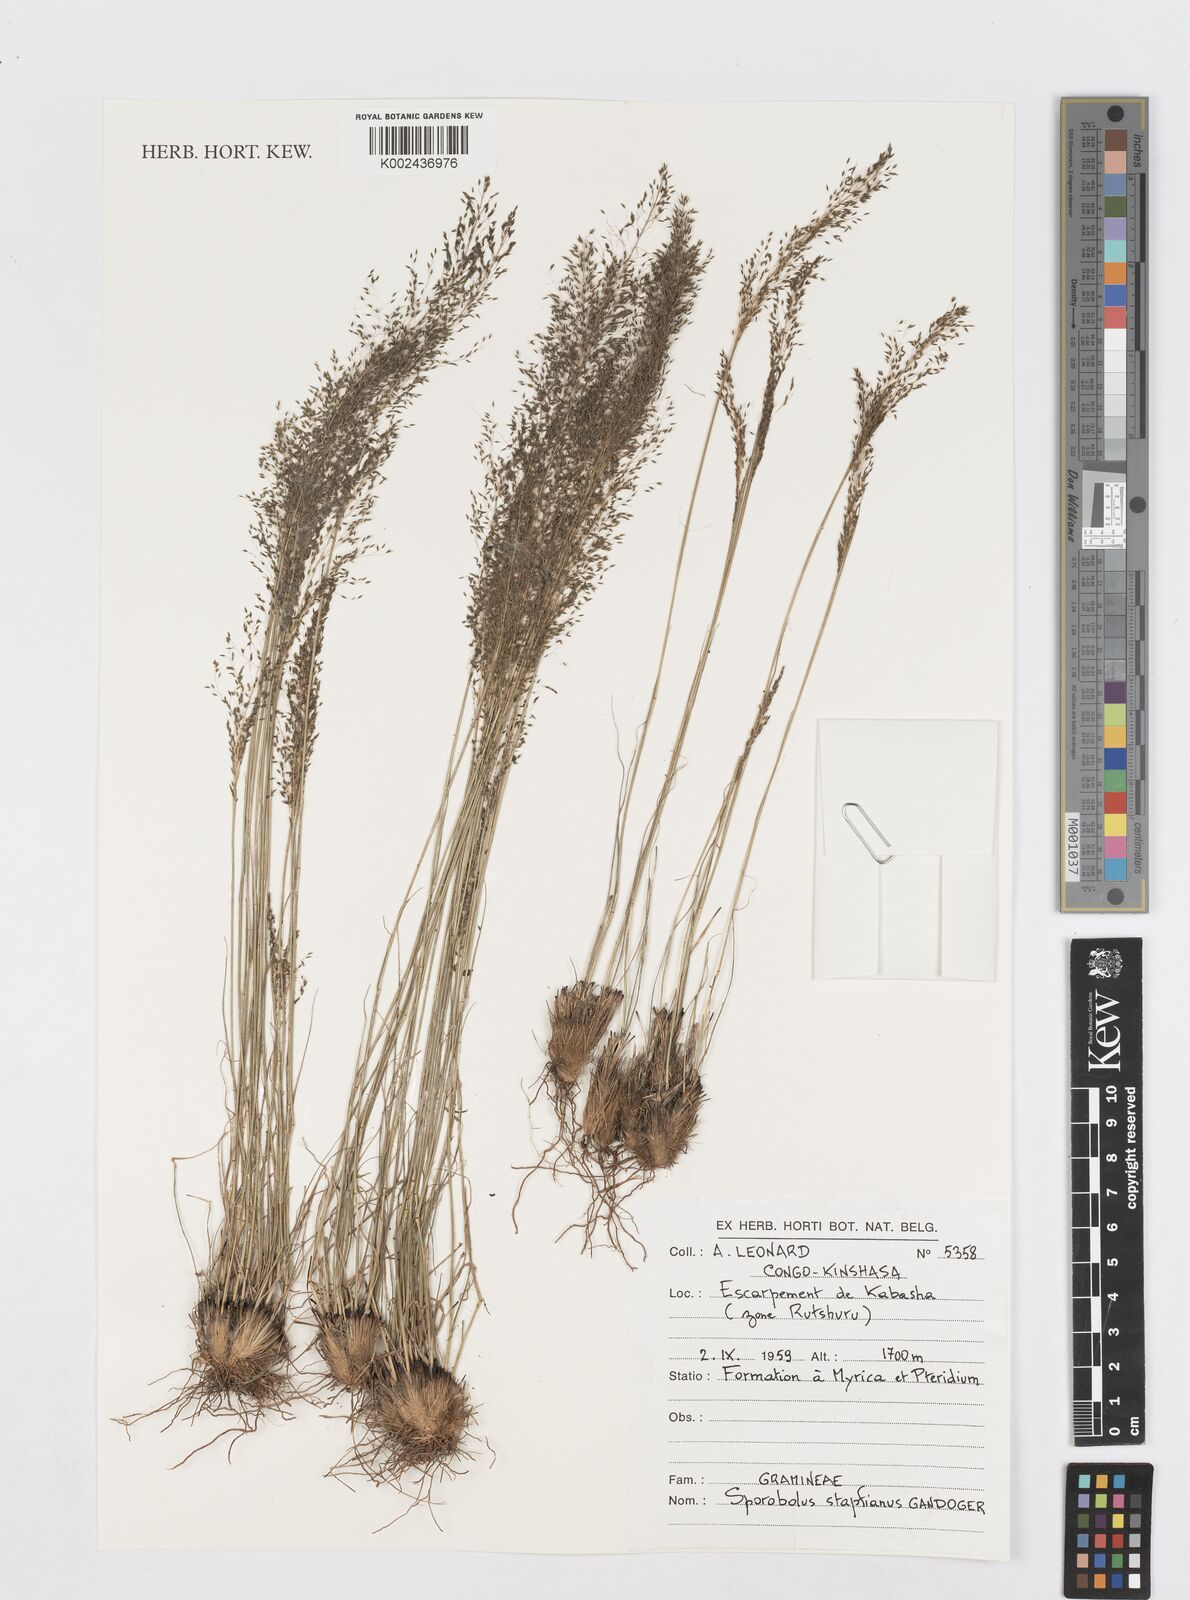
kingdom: Plantae
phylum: Tracheophyta
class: Liliopsida
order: Poales
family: Poaceae
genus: Sporobolus
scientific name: Sporobolus stapfianus
